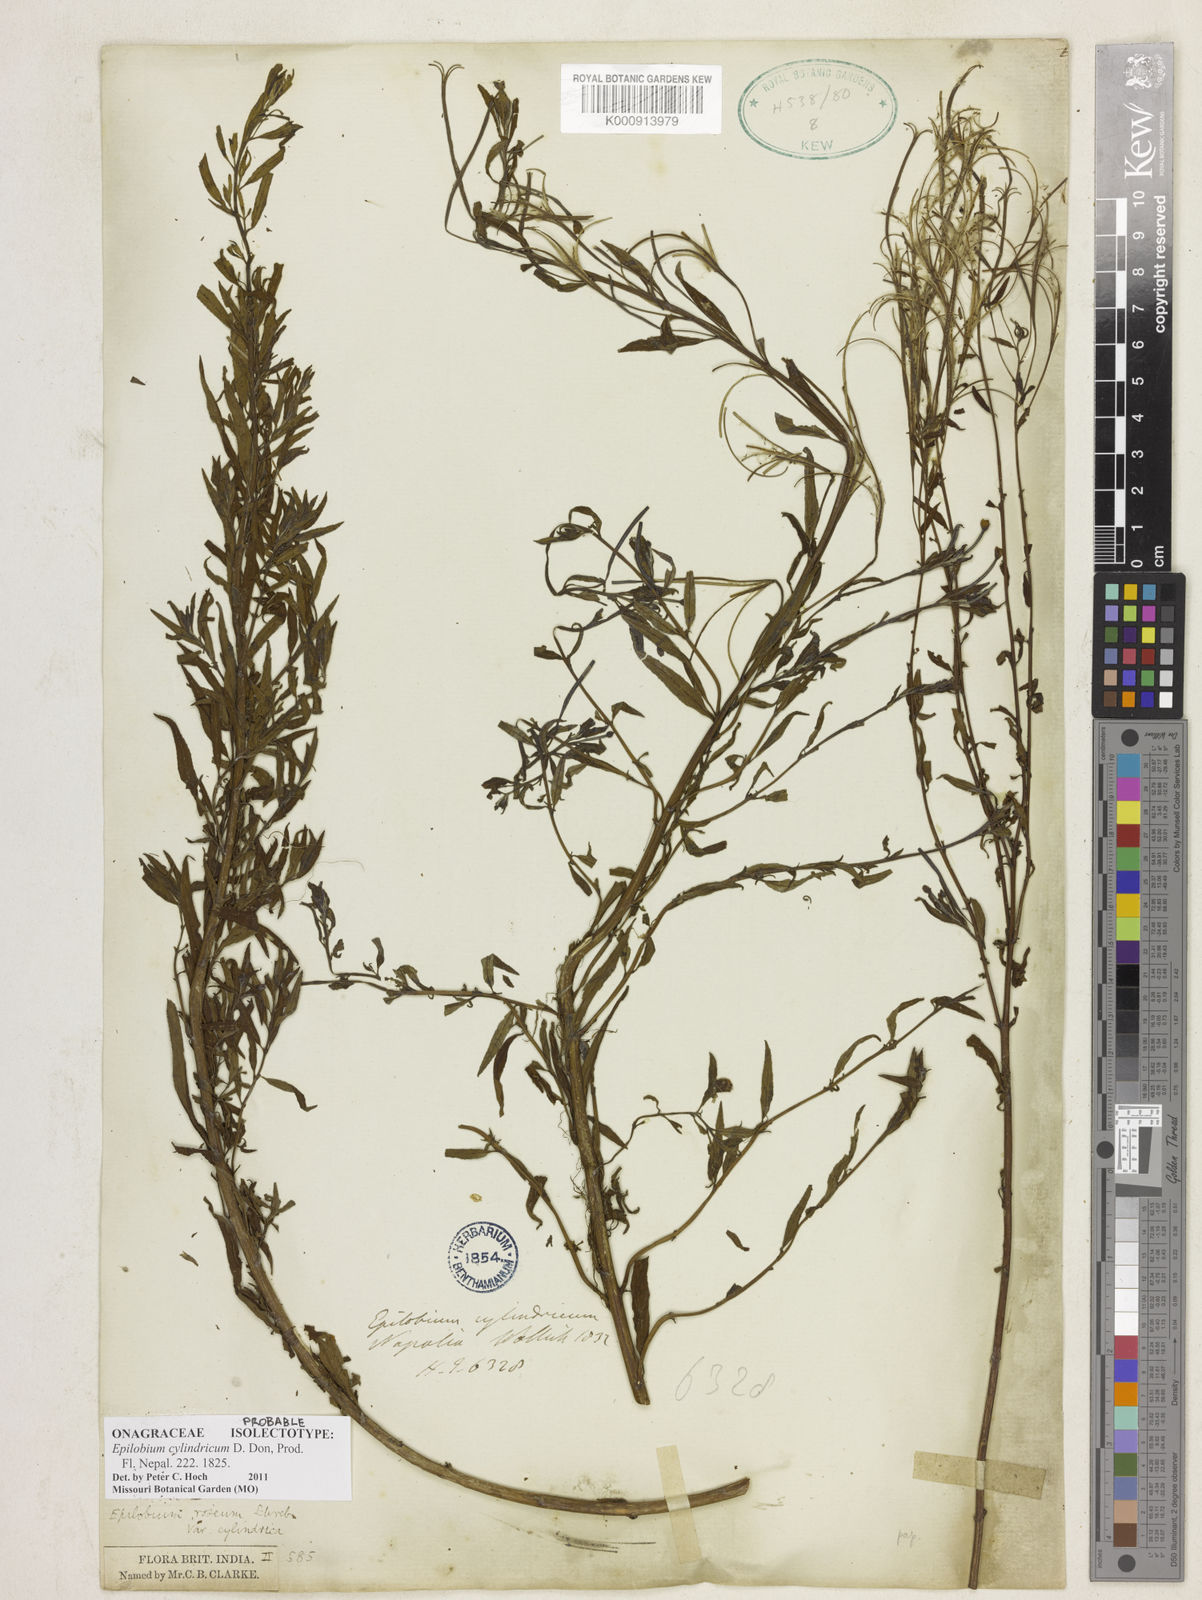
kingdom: Plantae
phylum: Tracheophyta
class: Magnoliopsida
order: Myrtales
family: Onagraceae
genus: Epilobium
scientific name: Epilobium cylindricum
